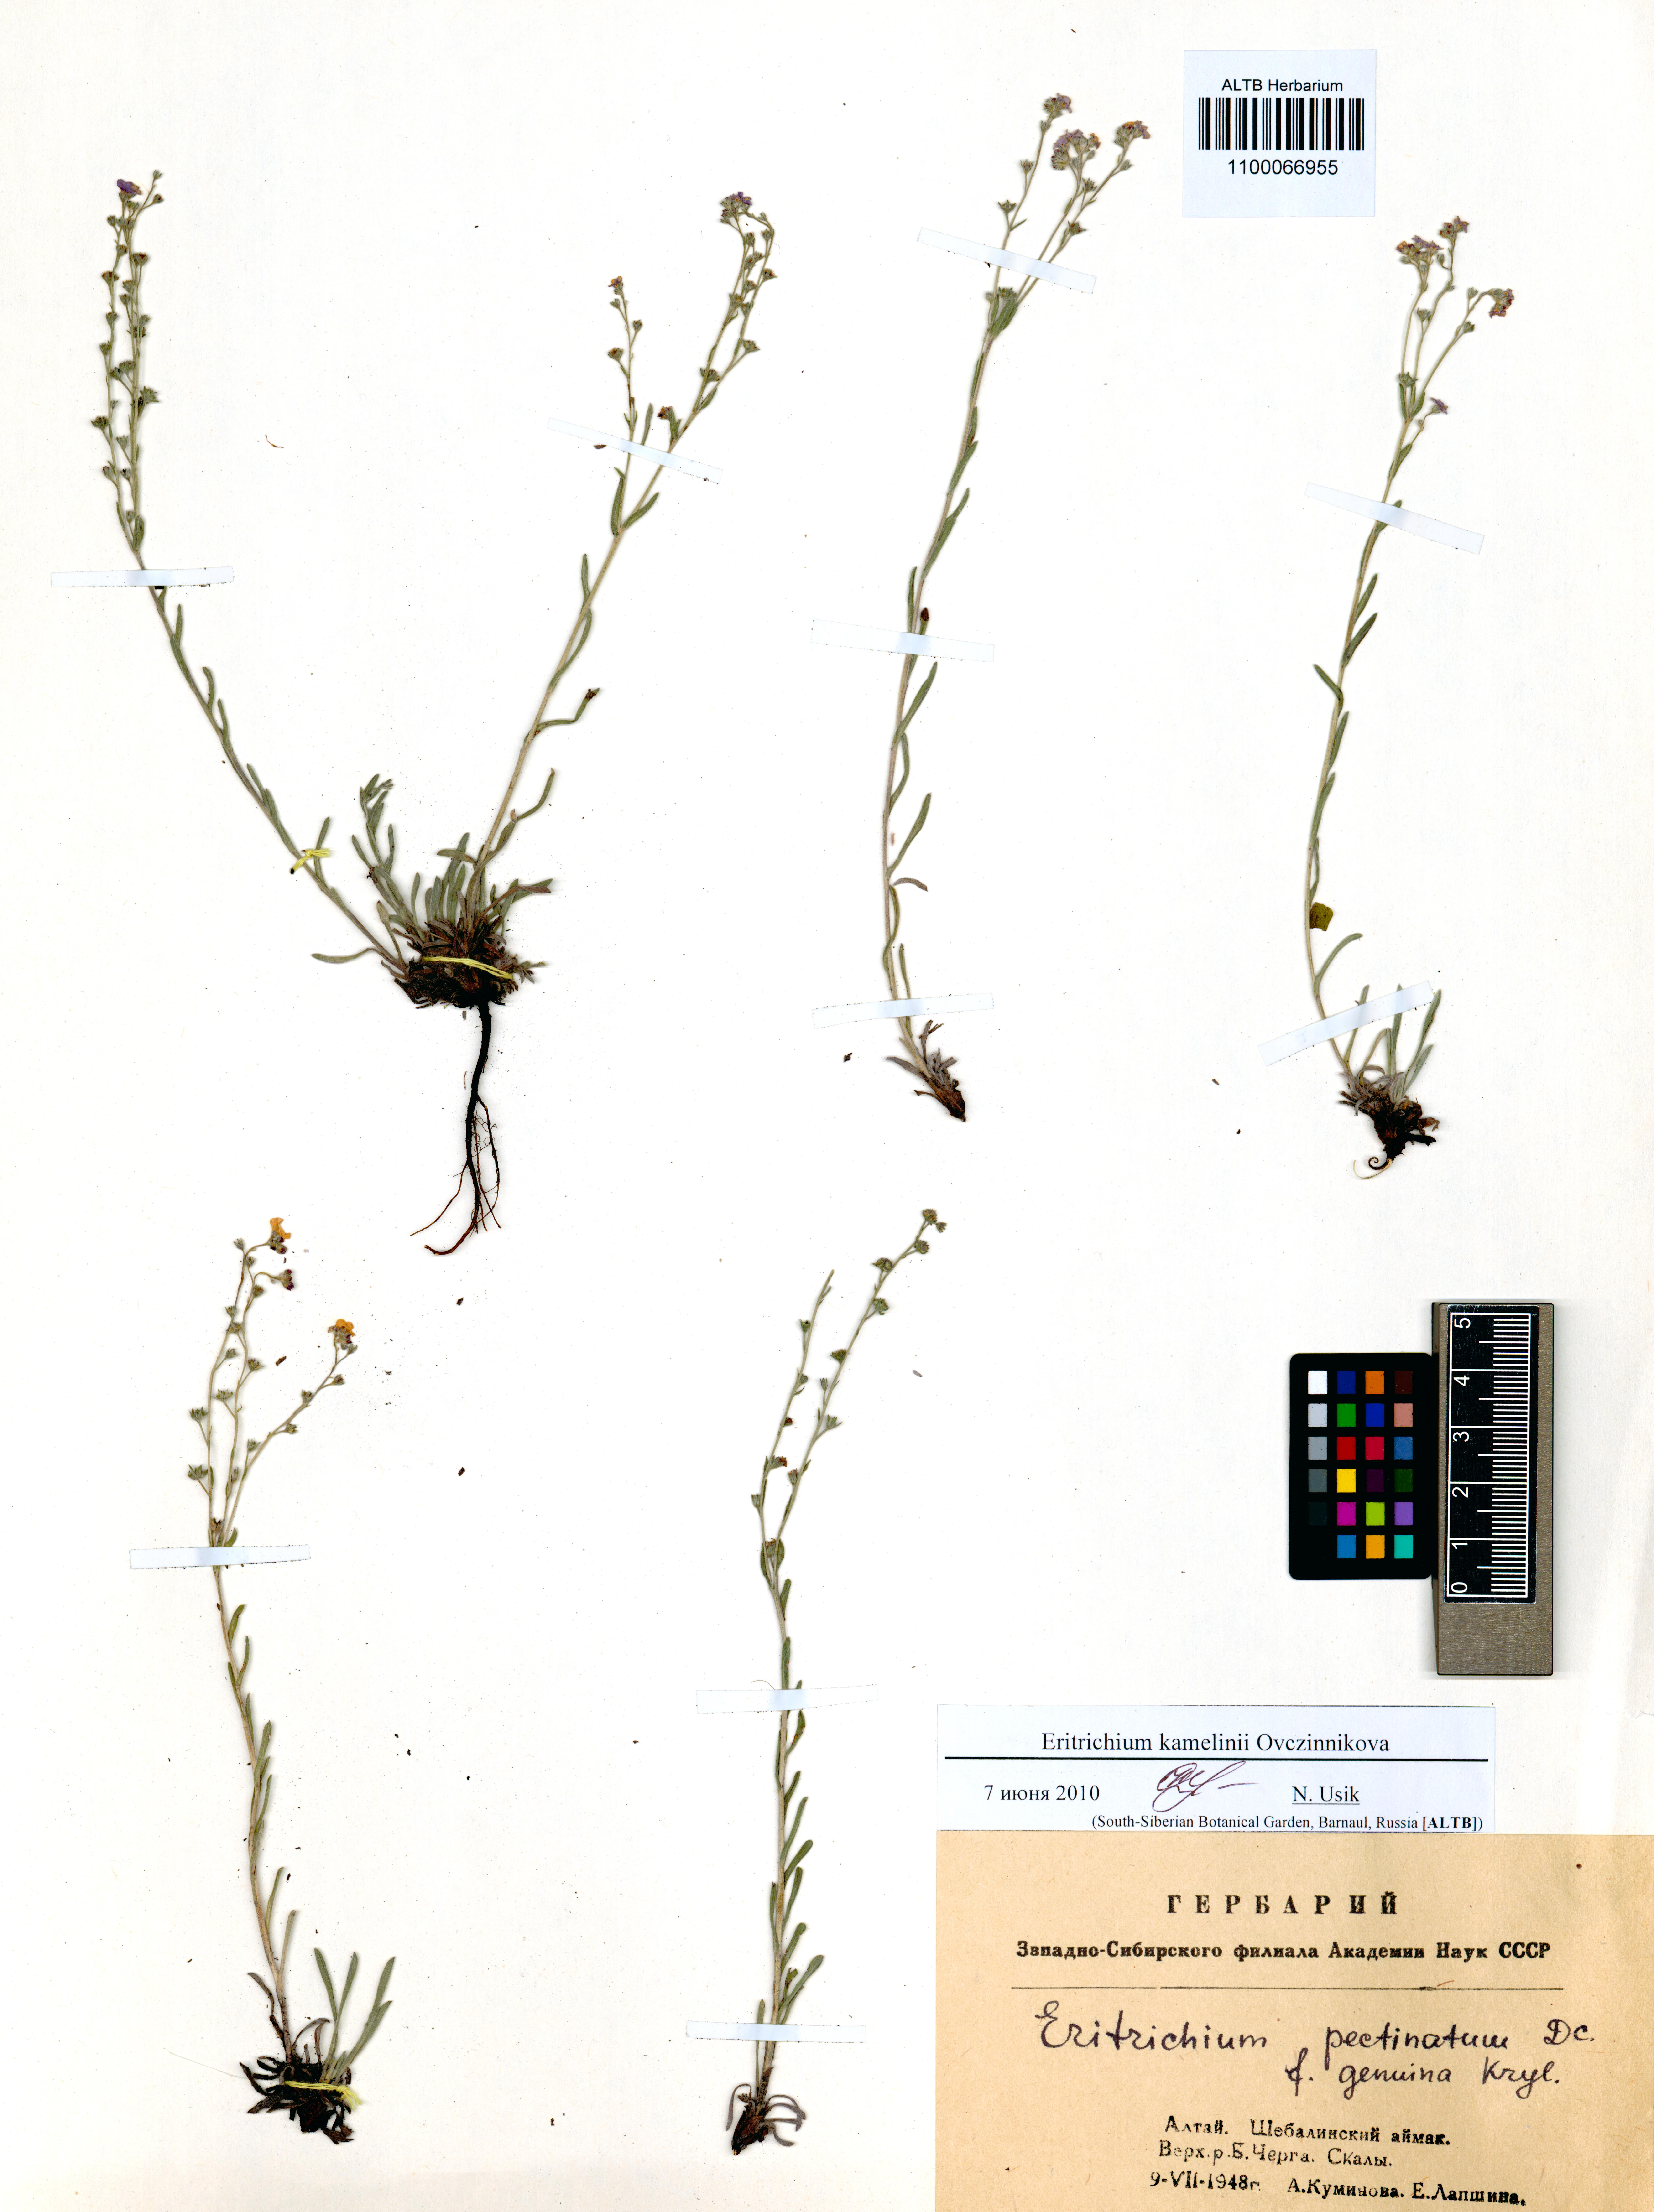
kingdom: Plantae
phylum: Tracheophyta
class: Magnoliopsida
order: Boraginales
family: Boraginaceae
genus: Eritrichium
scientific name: Eritrichium kamelinii
